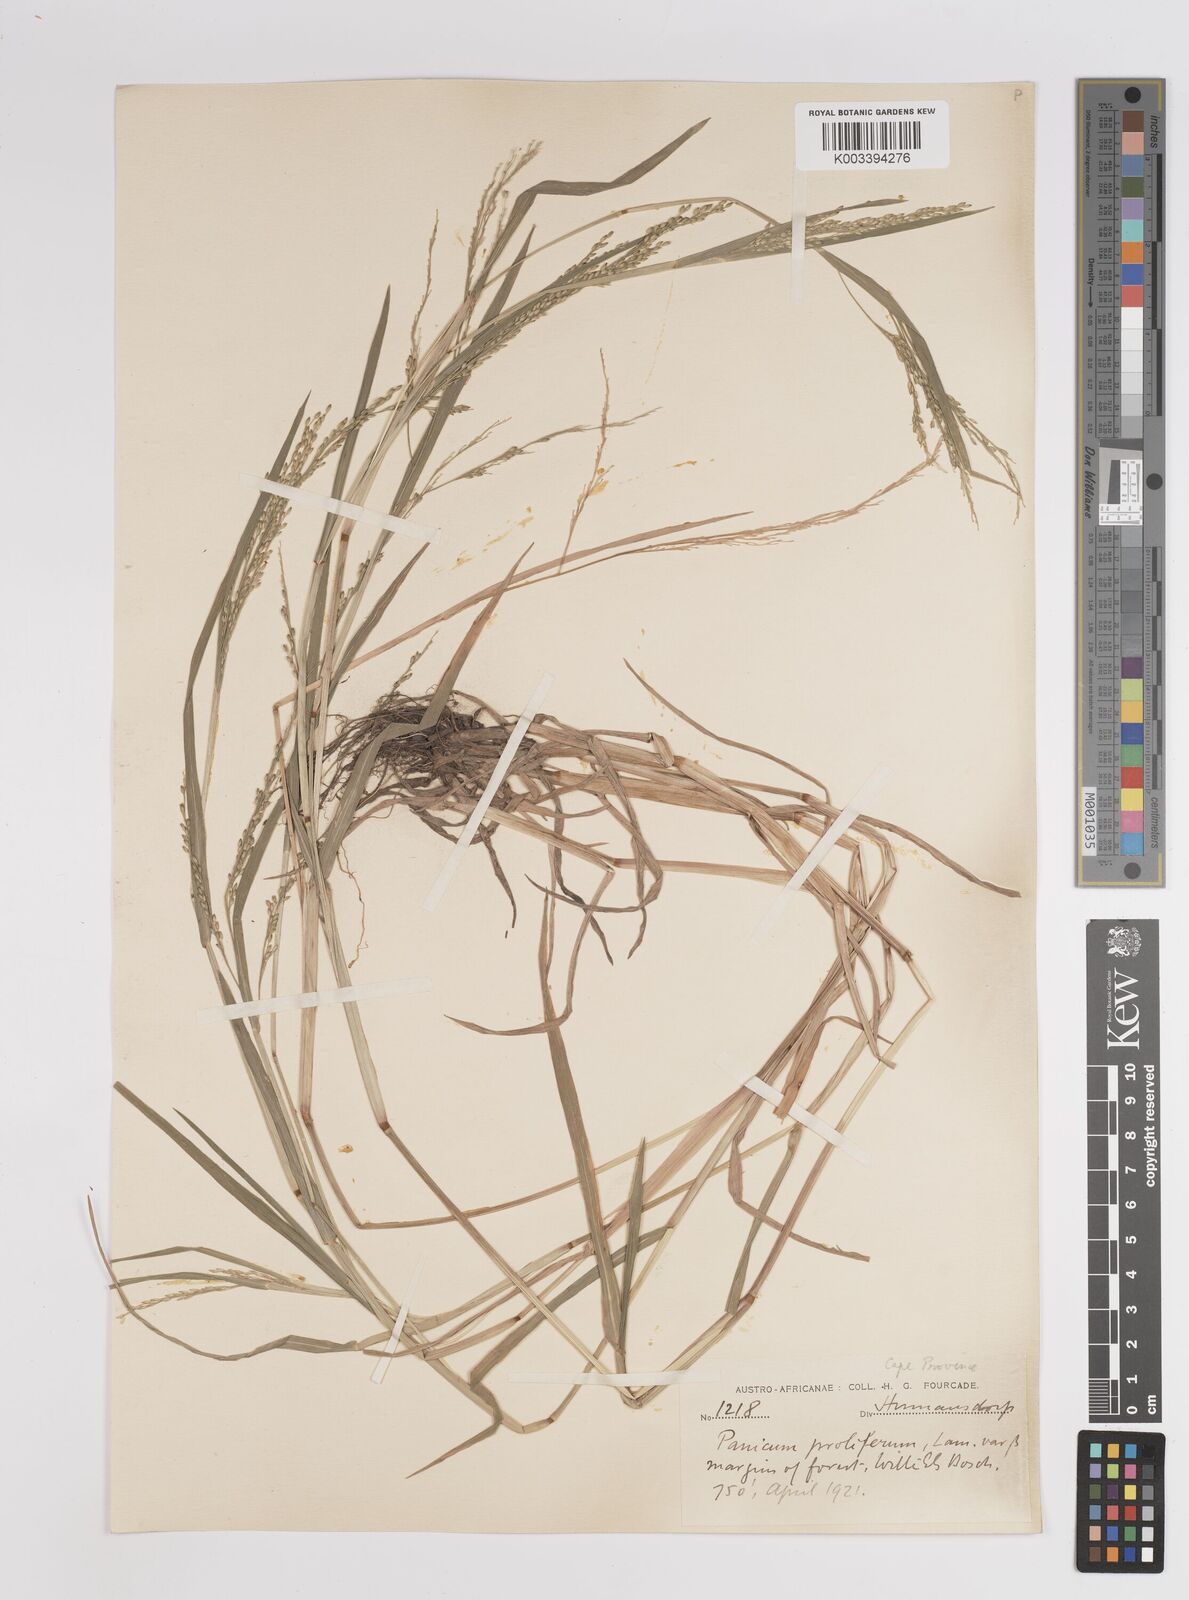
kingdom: Plantae
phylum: Tracheophyta
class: Liliopsida
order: Poales
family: Poaceae
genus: Panicum
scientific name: Panicum subalbidum
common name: Elbow buffalo grass
